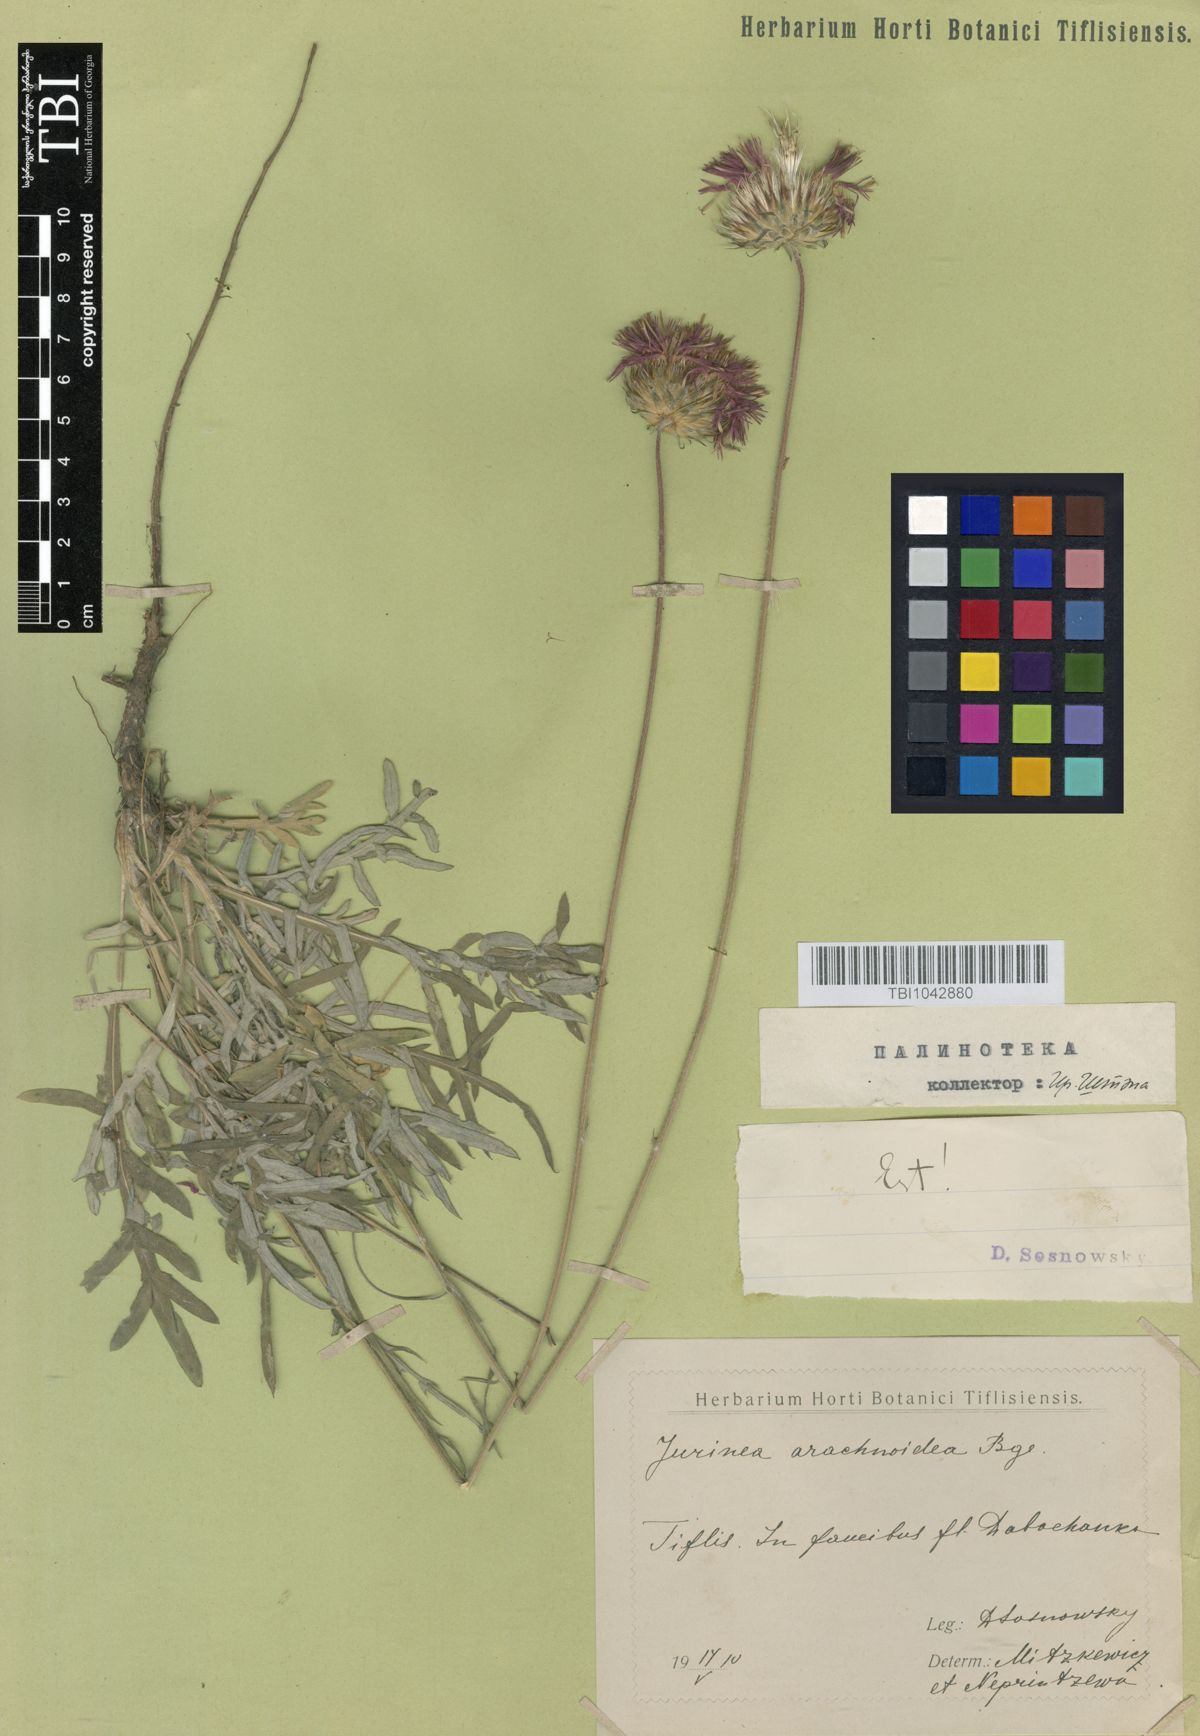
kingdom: Plantae
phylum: Tracheophyta
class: Magnoliopsida
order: Asterales
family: Asteraceae
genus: Jurinea
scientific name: Jurinea blanda
